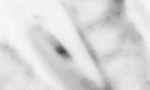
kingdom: Animalia
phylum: Chaetognatha
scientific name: Chaetognatha
